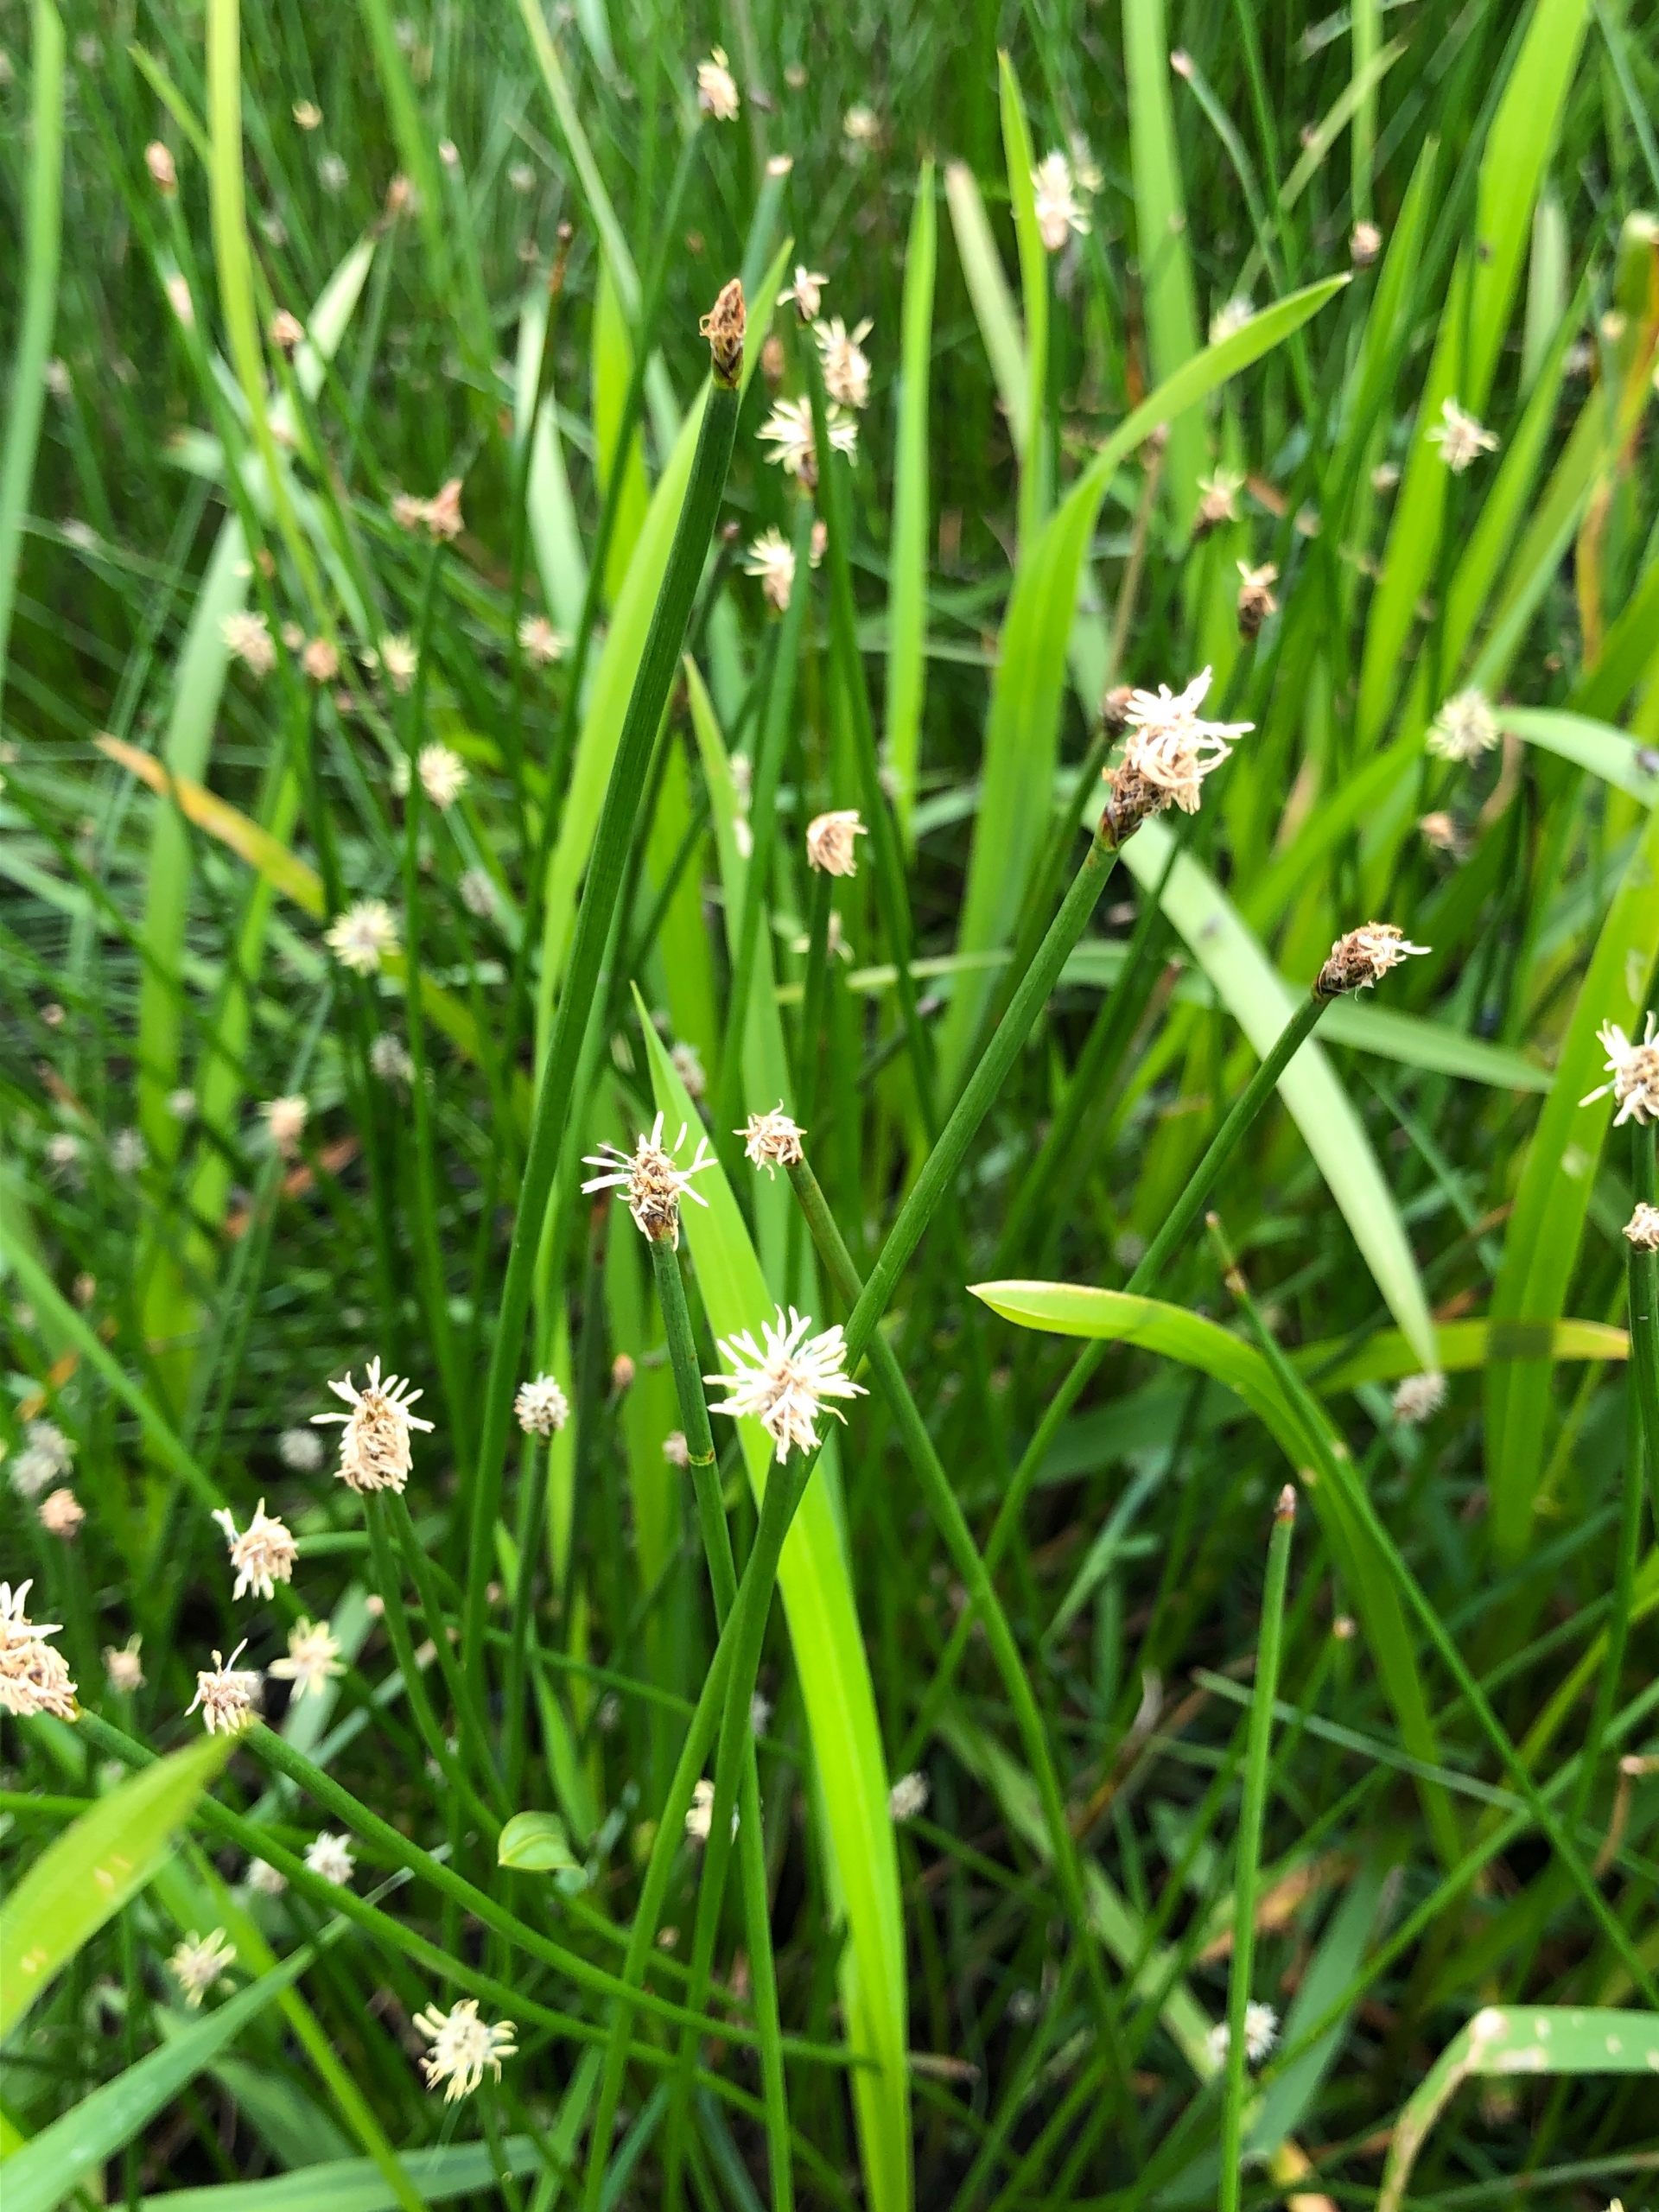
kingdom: Plantae
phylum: Tracheophyta
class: Liliopsida
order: Poales
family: Cyperaceae
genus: Eleocharis
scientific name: Eleocharis palustris
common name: Almindelig sumpstrå
